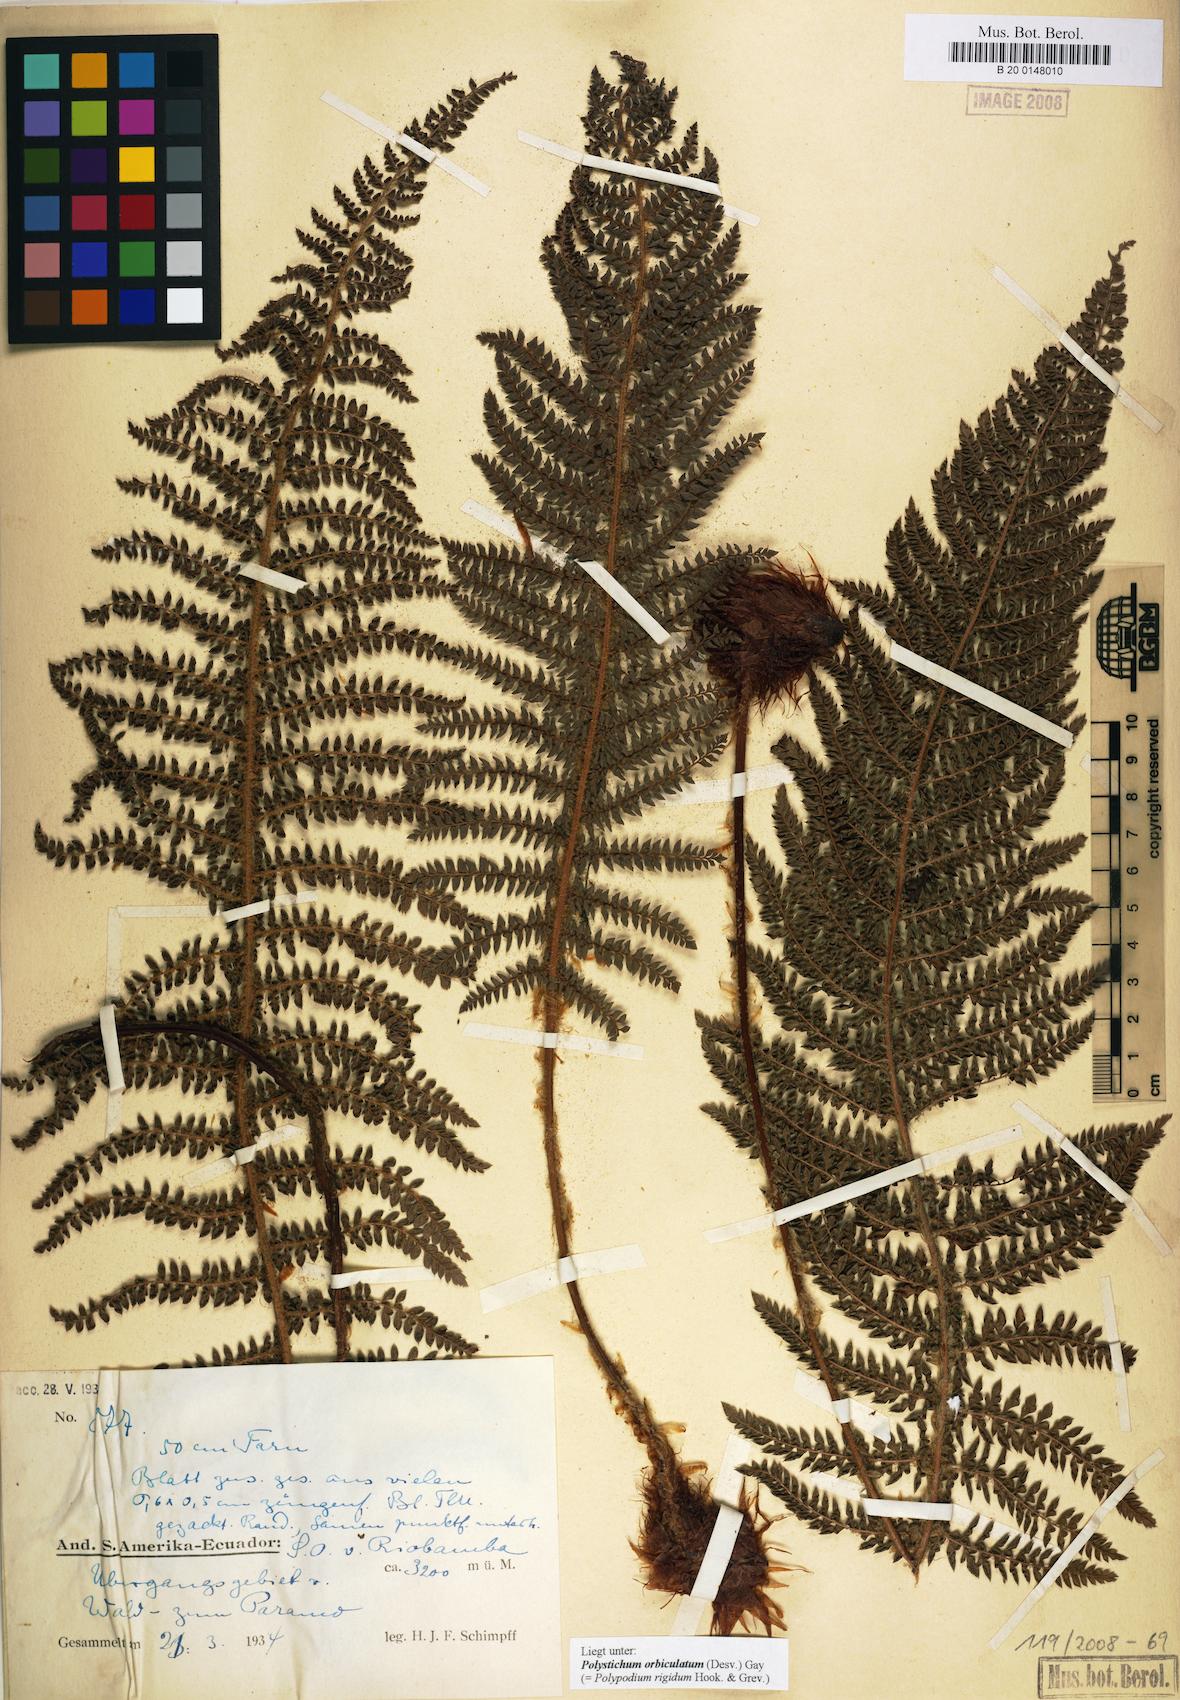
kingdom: Plantae
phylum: Tracheophyta
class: Polypodiopsida
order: Polypodiales
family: Dryopteridaceae
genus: Polystichum
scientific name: Polystichum orbiculatum
